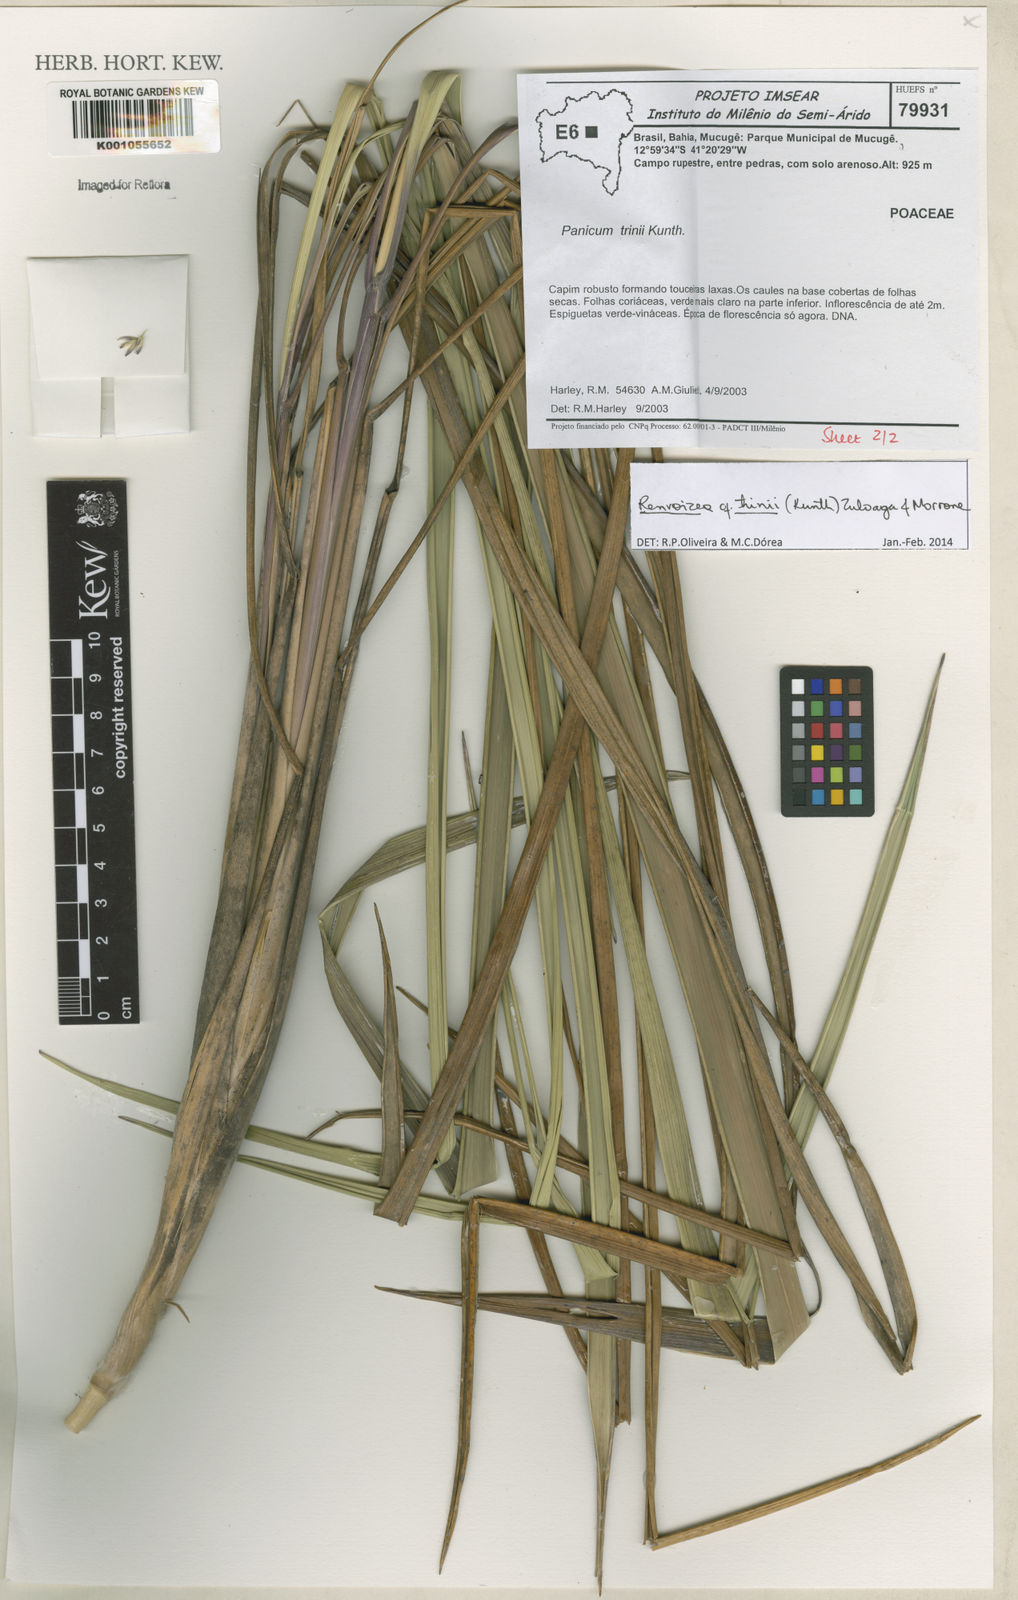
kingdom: Plantae
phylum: Tracheophyta
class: Liliopsida
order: Poales
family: Poaceae
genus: Renvoizea
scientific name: Renvoizea trinii
